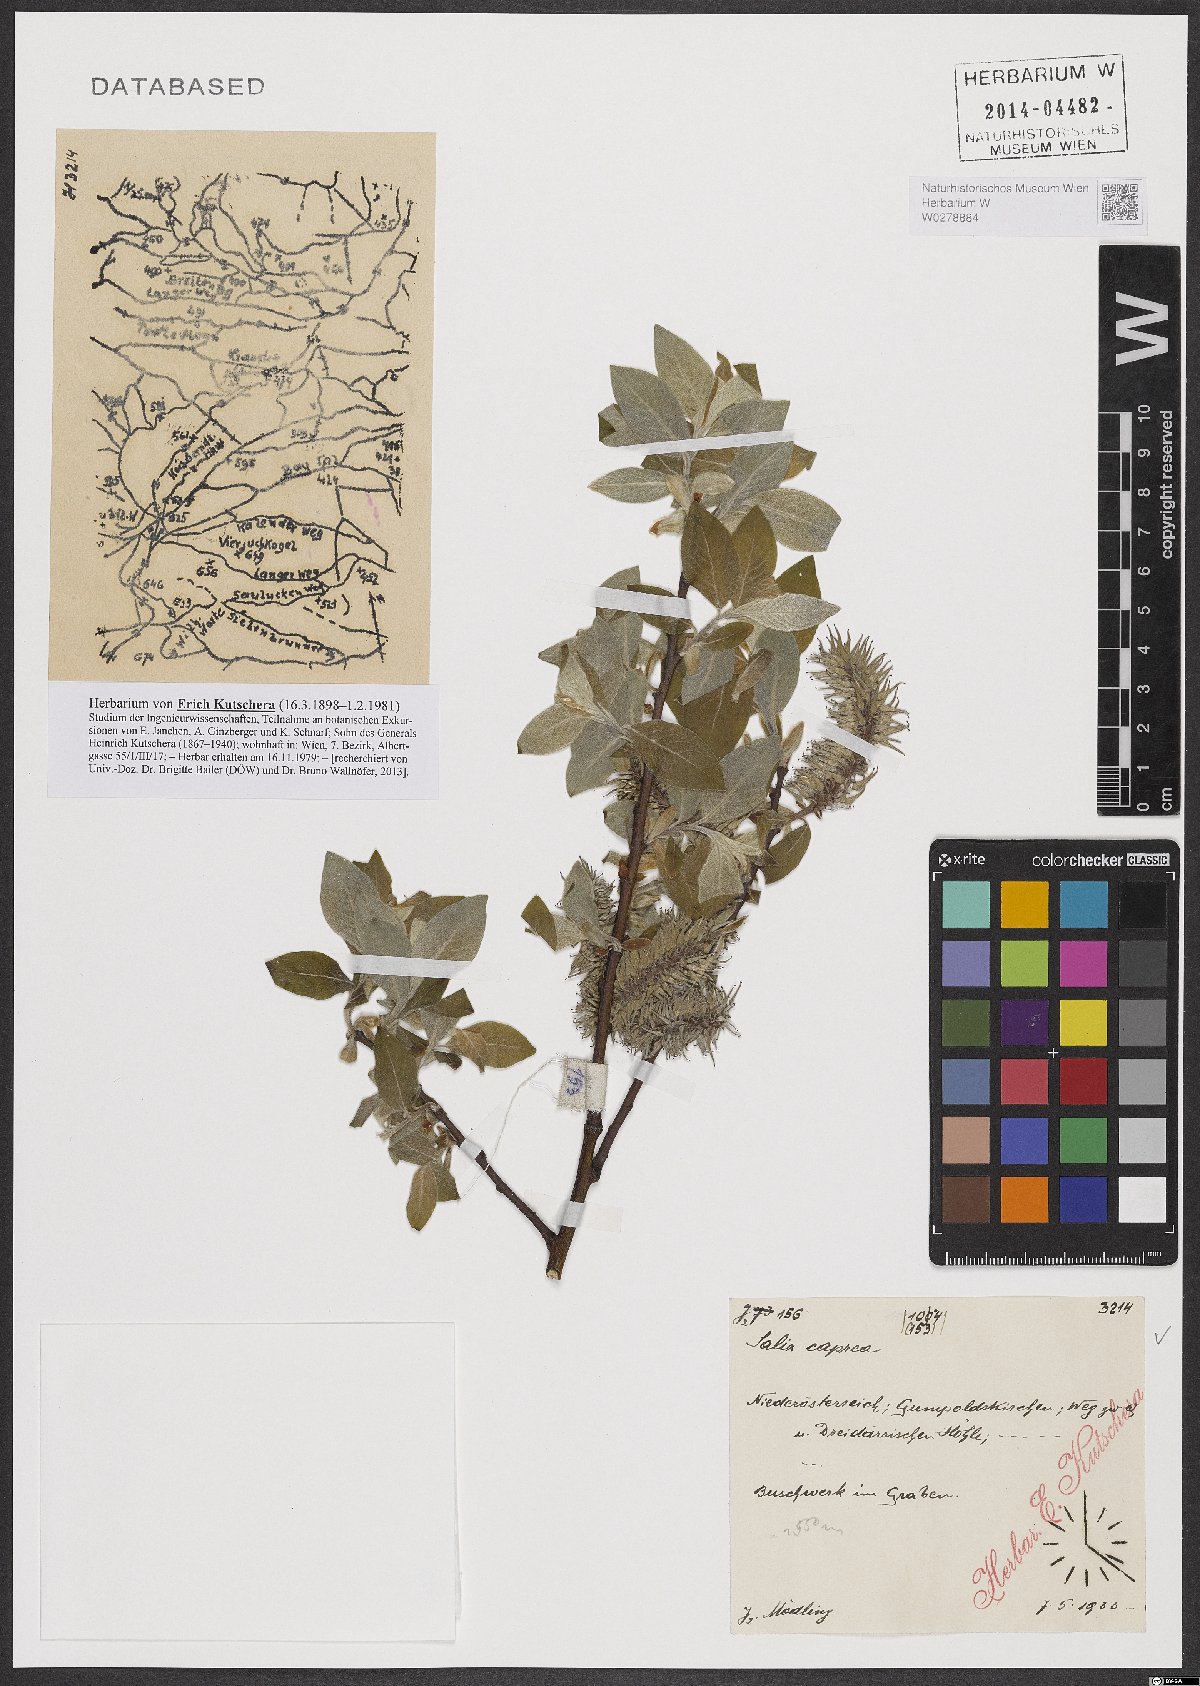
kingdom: Plantae
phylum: Tracheophyta
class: Magnoliopsida
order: Malpighiales
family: Salicaceae
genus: Salix
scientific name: Salix caprea
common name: Goat willow
